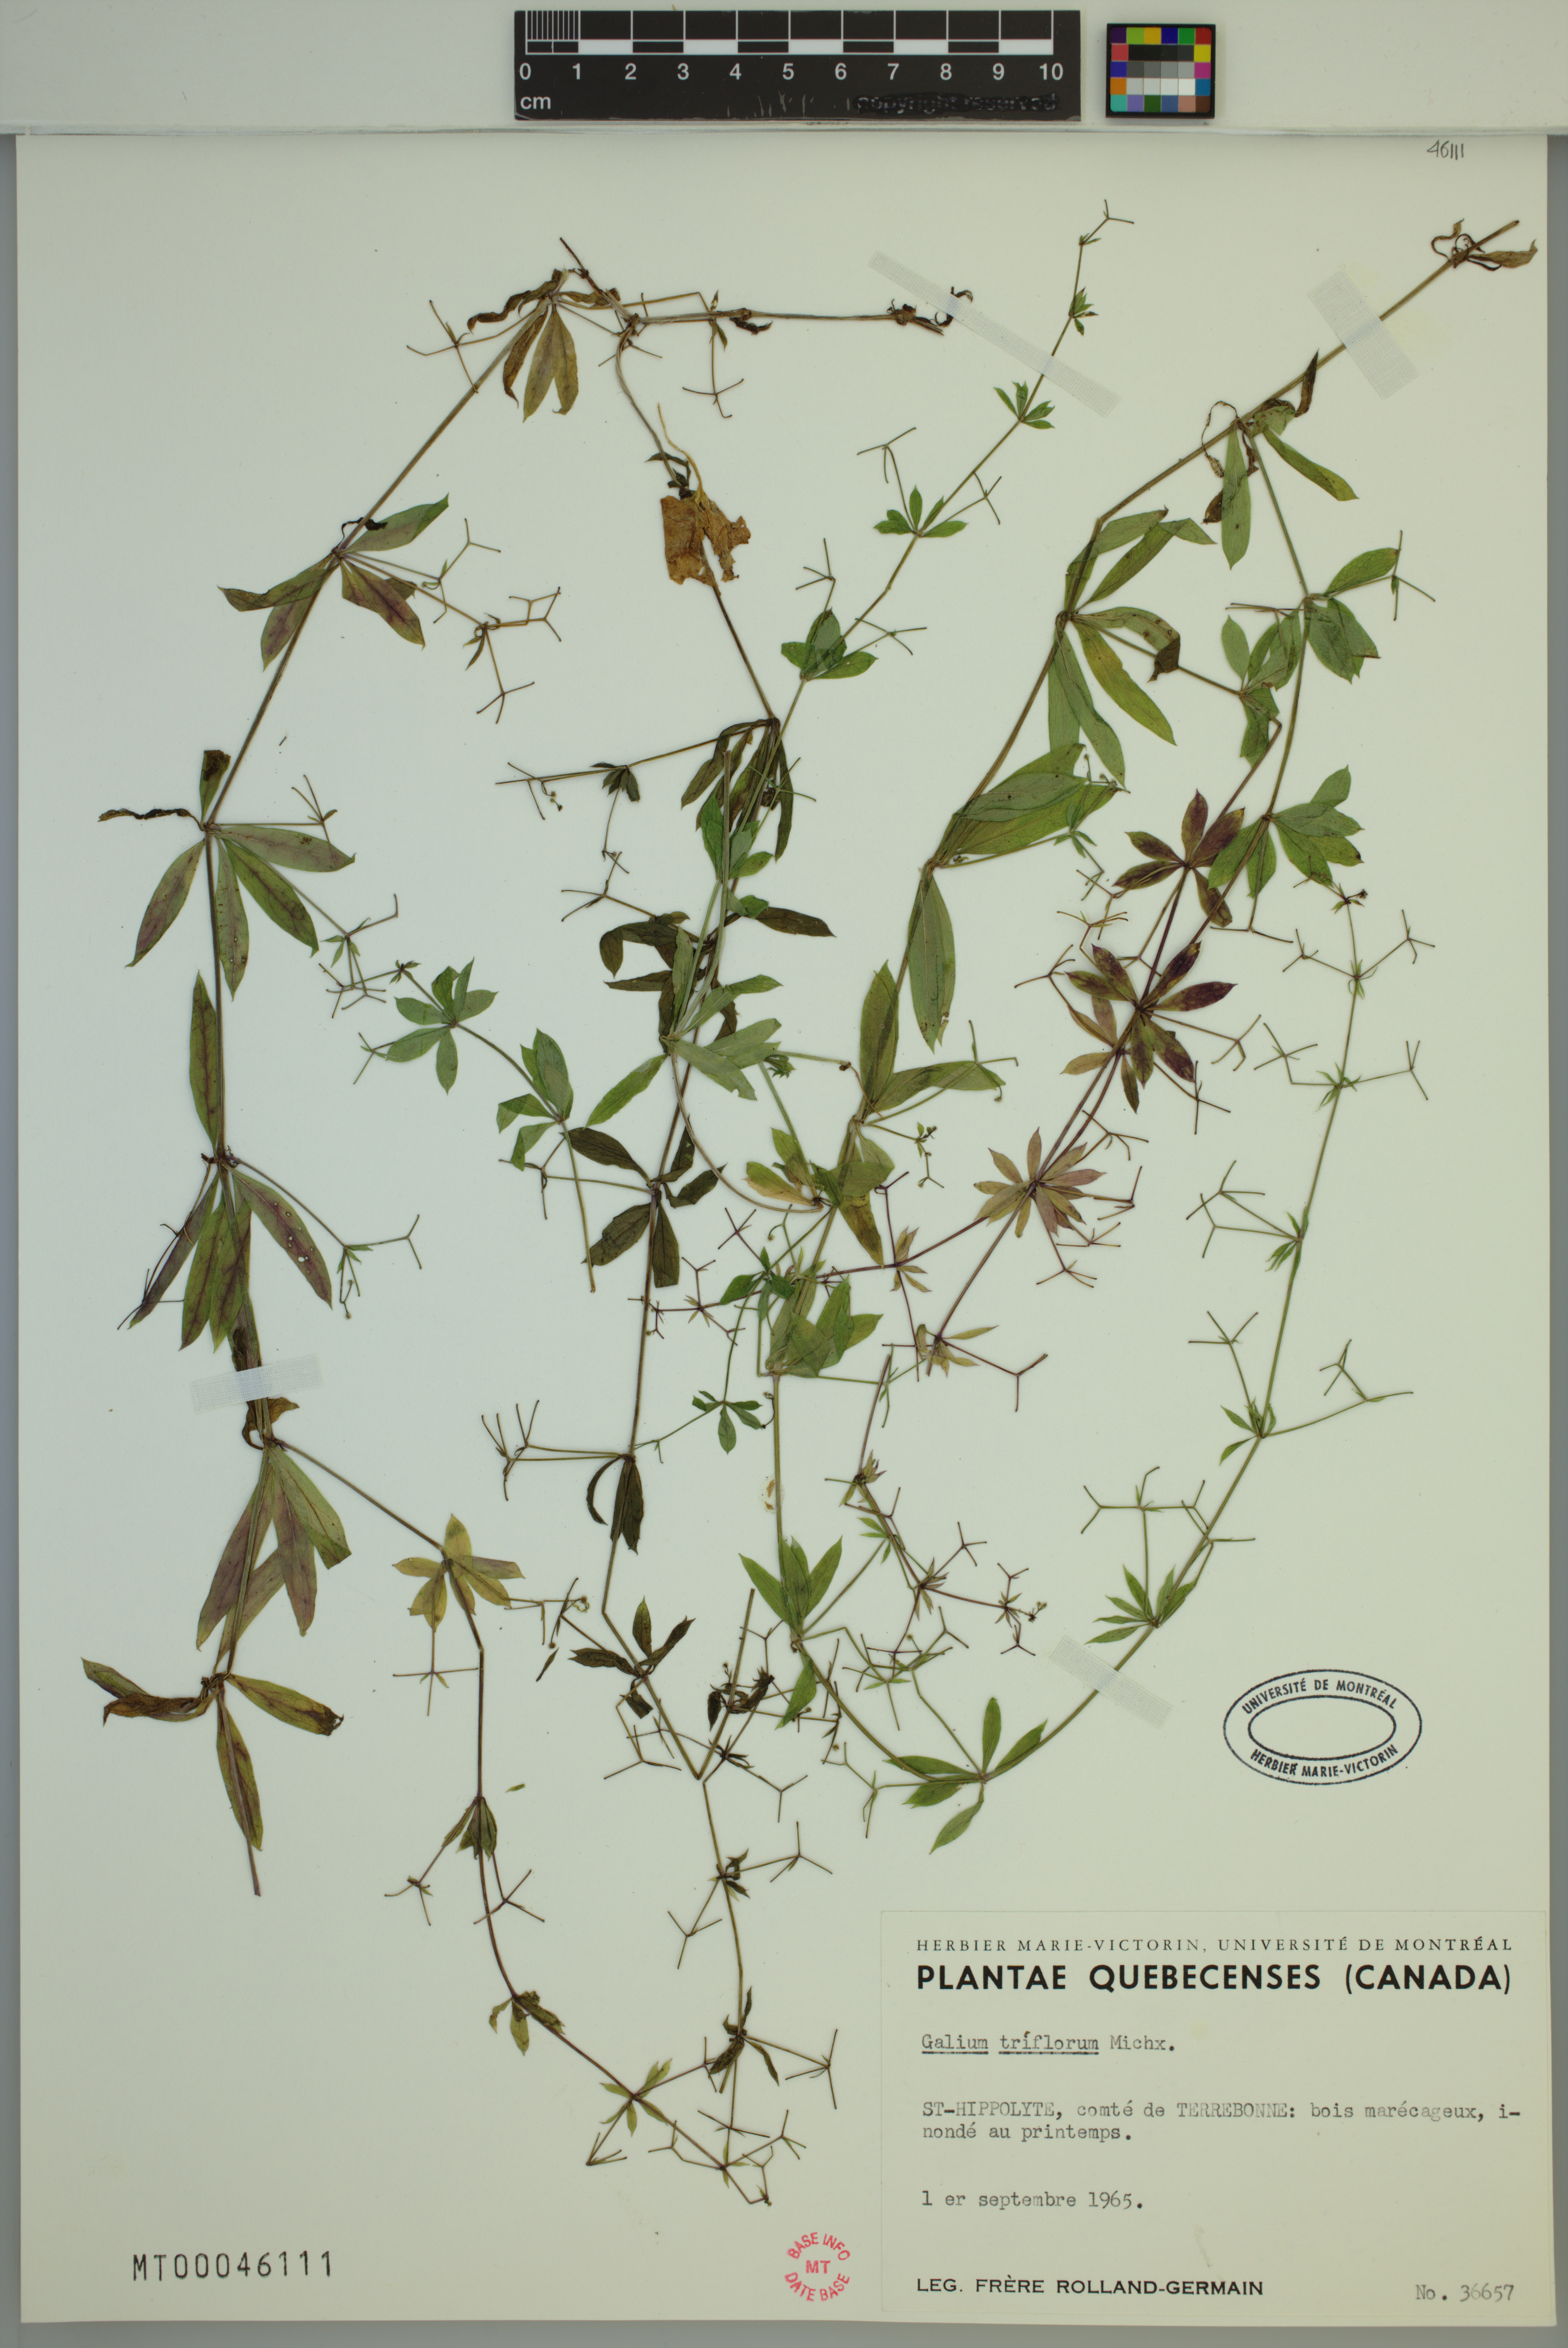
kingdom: Plantae
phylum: Tracheophyta
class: Magnoliopsida
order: Gentianales
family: Rubiaceae
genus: Galium
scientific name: Galium triflorum
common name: Fragrant bedstraw
